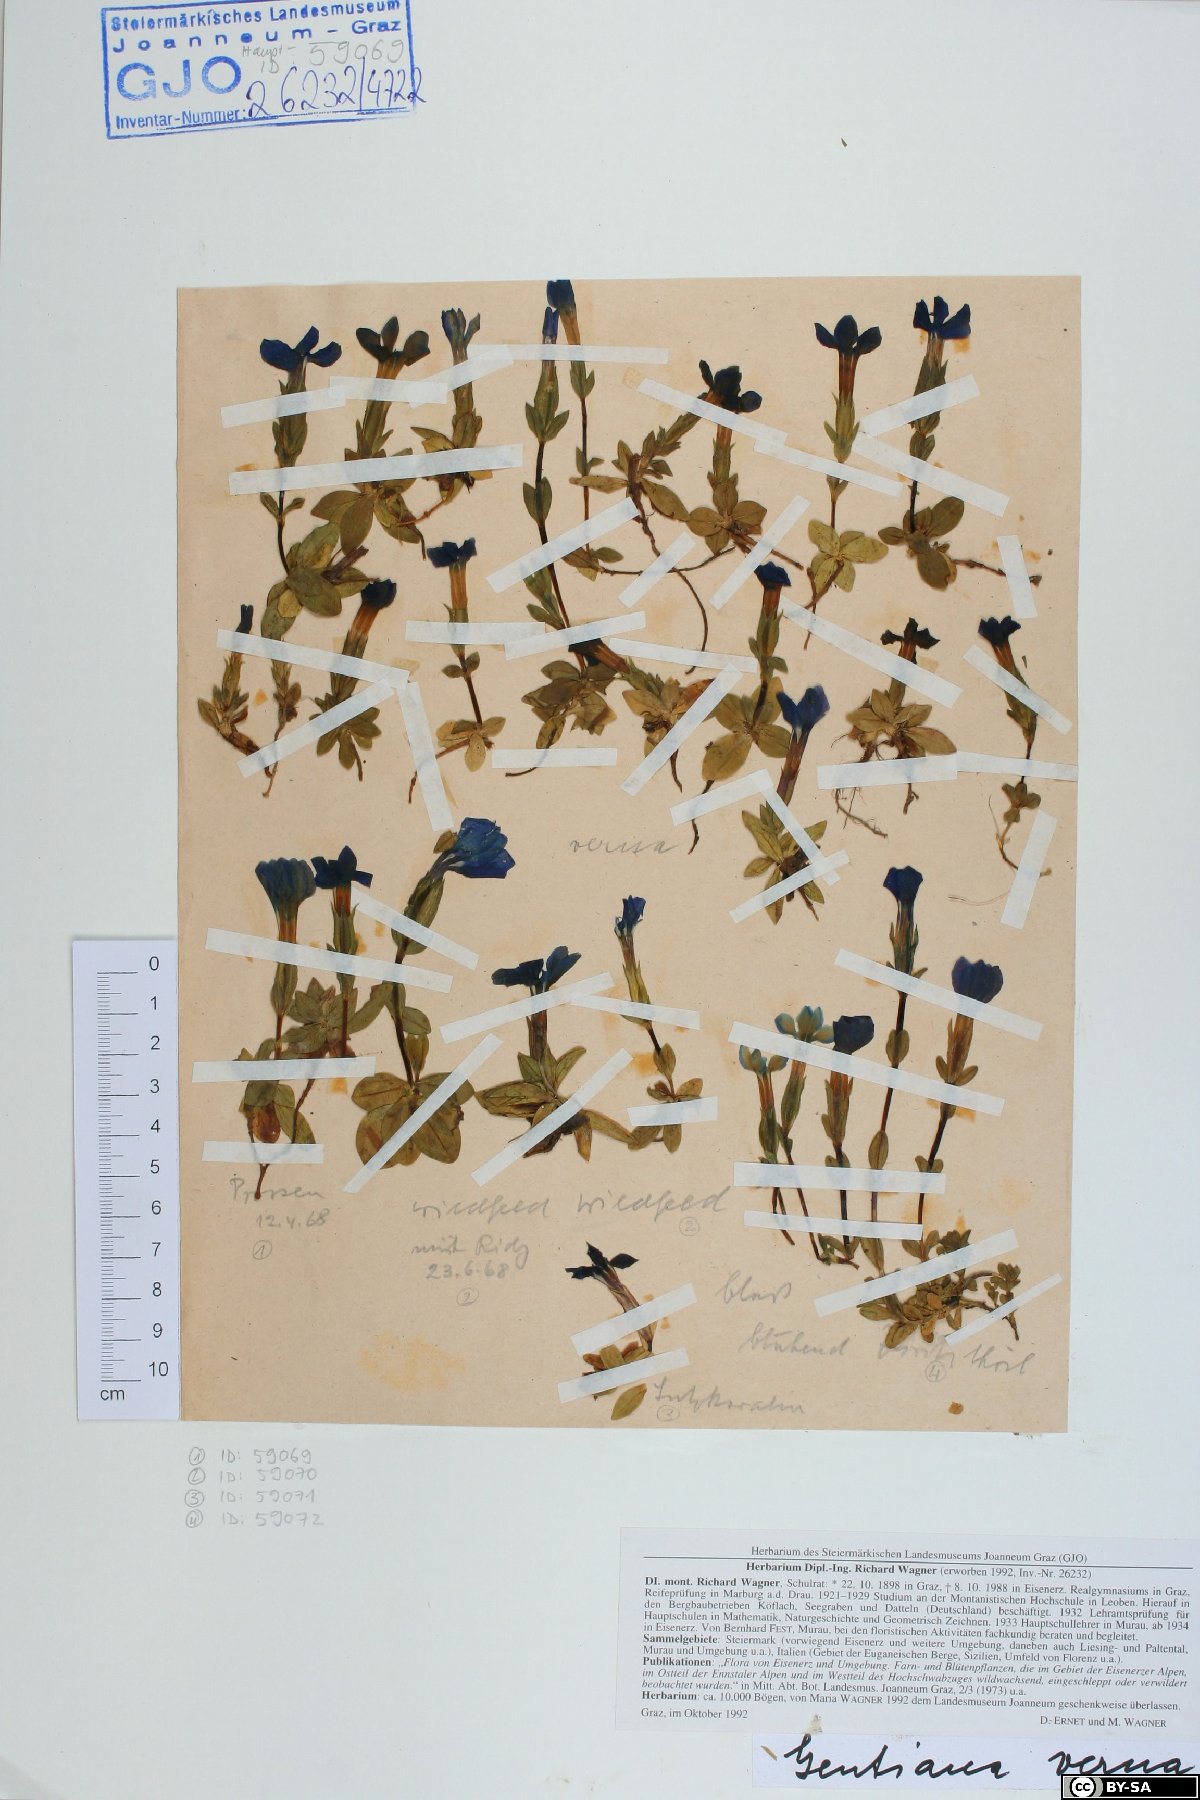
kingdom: Plantae
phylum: Tracheophyta
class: Magnoliopsida
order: Gentianales
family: Gentianaceae
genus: Gentiana
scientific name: Gentiana verna
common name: Spring gentian
